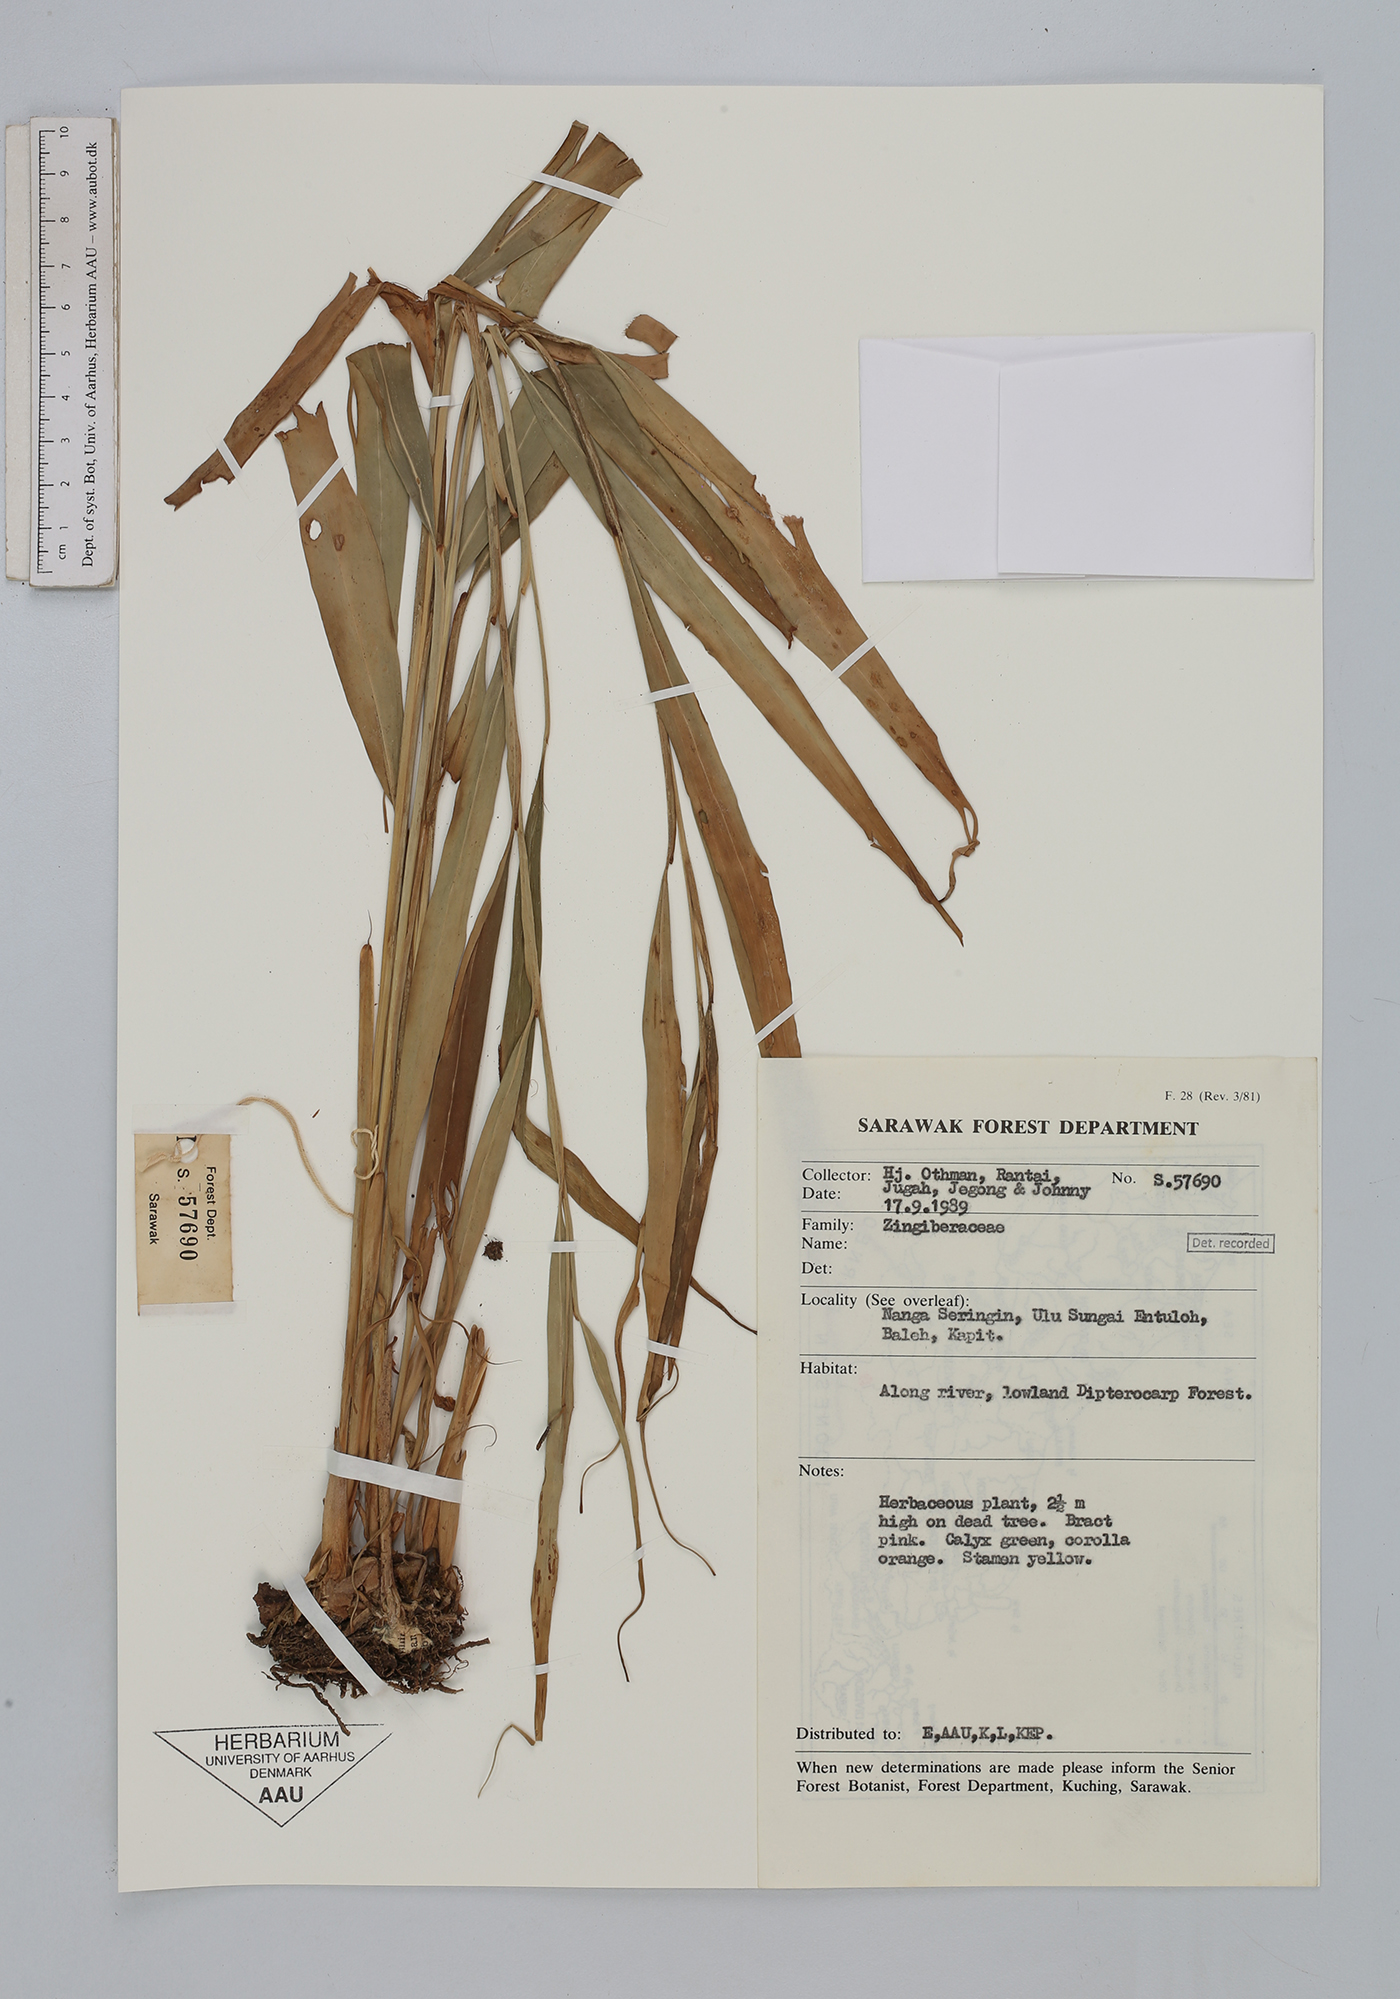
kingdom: Plantae
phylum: Tracheophyta
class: Liliopsida
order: Zingiberales
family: Zingiberaceae
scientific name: Zingiberaceae
